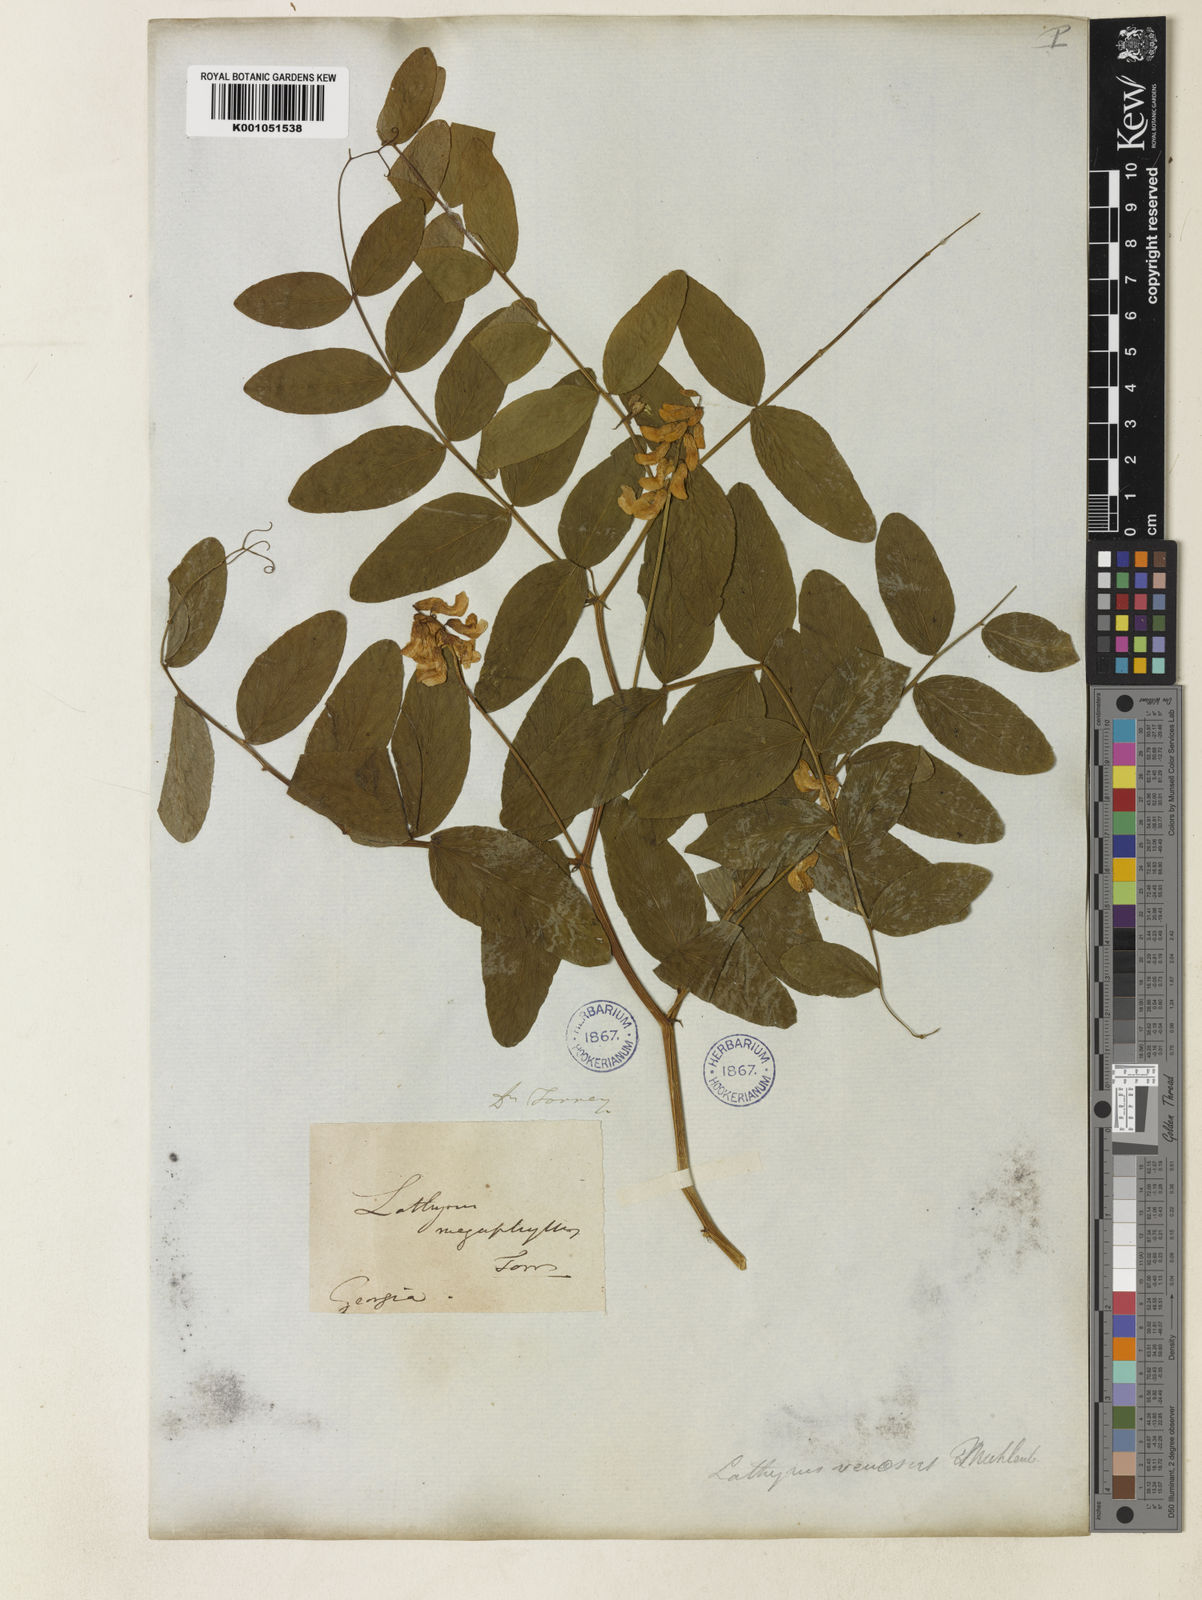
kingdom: Plantae
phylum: Tracheophyta
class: Magnoliopsida
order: Fabales
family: Fabaceae
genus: Lathyrus
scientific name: Lathyrus venosus
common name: Forest-pea
